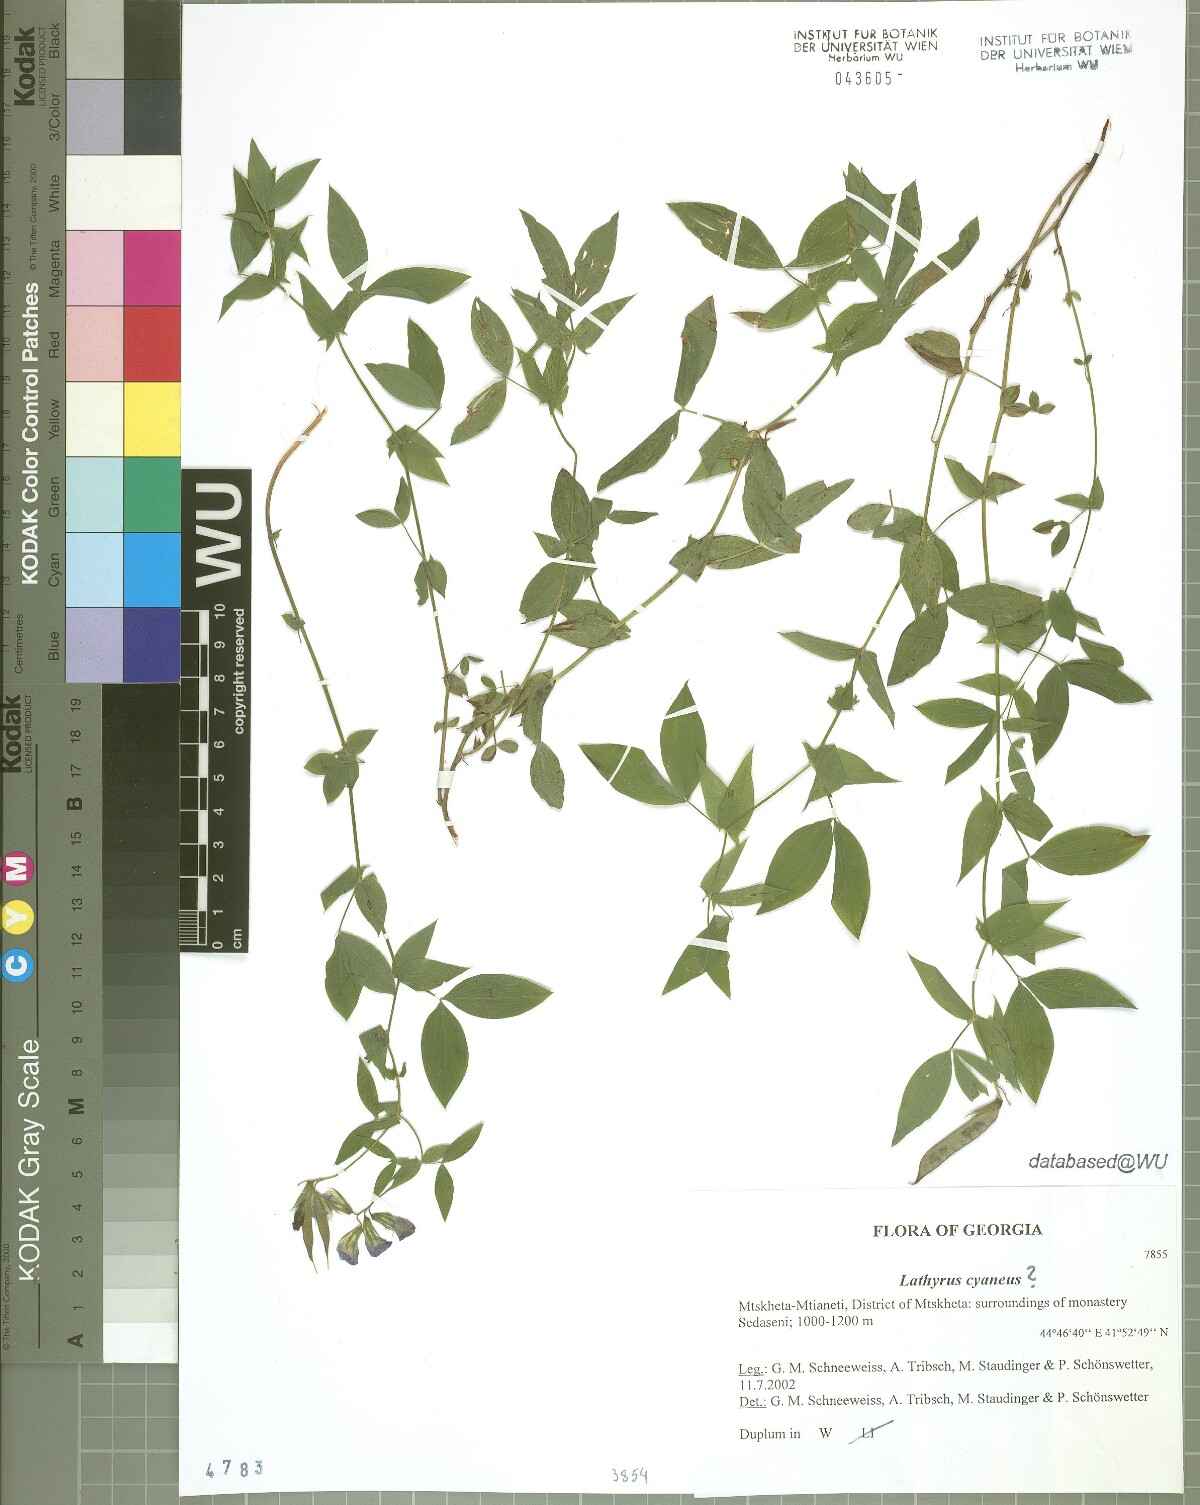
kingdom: Plantae
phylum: Tracheophyta
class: Magnoliopsida
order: Fabales
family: Fabaceae
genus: Lathyrus
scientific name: Lathyrus cyaneus
